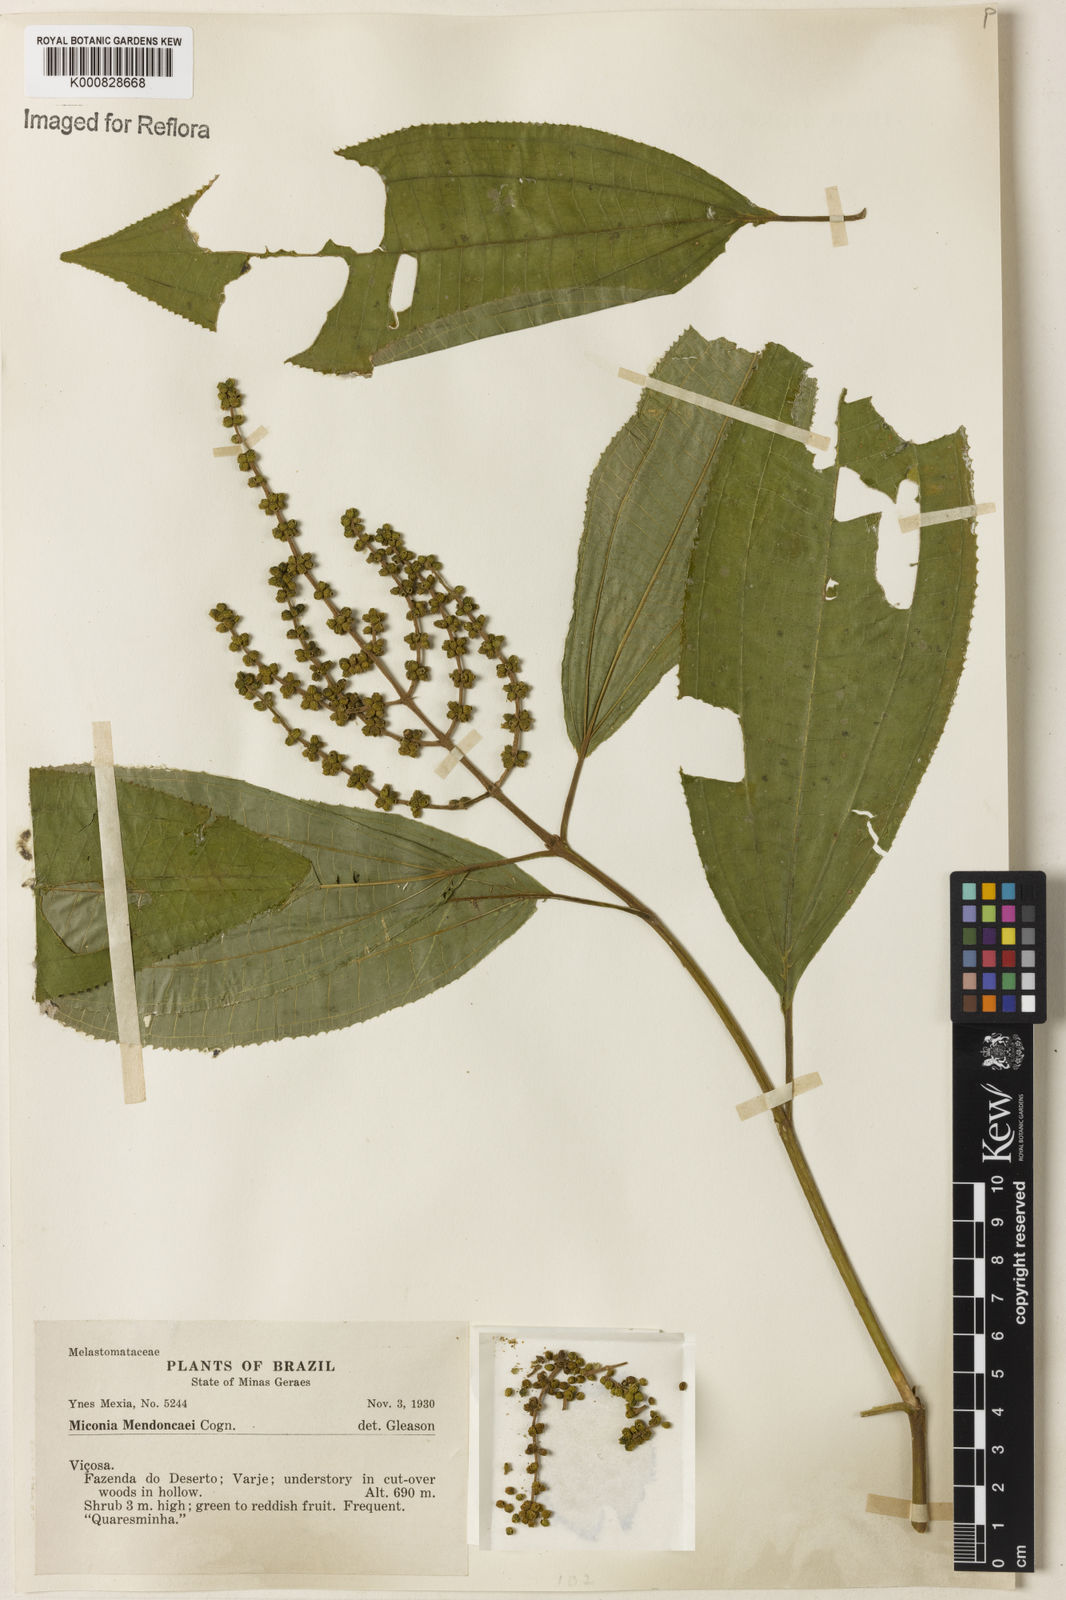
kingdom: Plantae
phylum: Tracheophyta
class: Magnoliopsida
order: Myrtales
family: Melastomataceae
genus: Miconia
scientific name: Miconia mendoncaei
